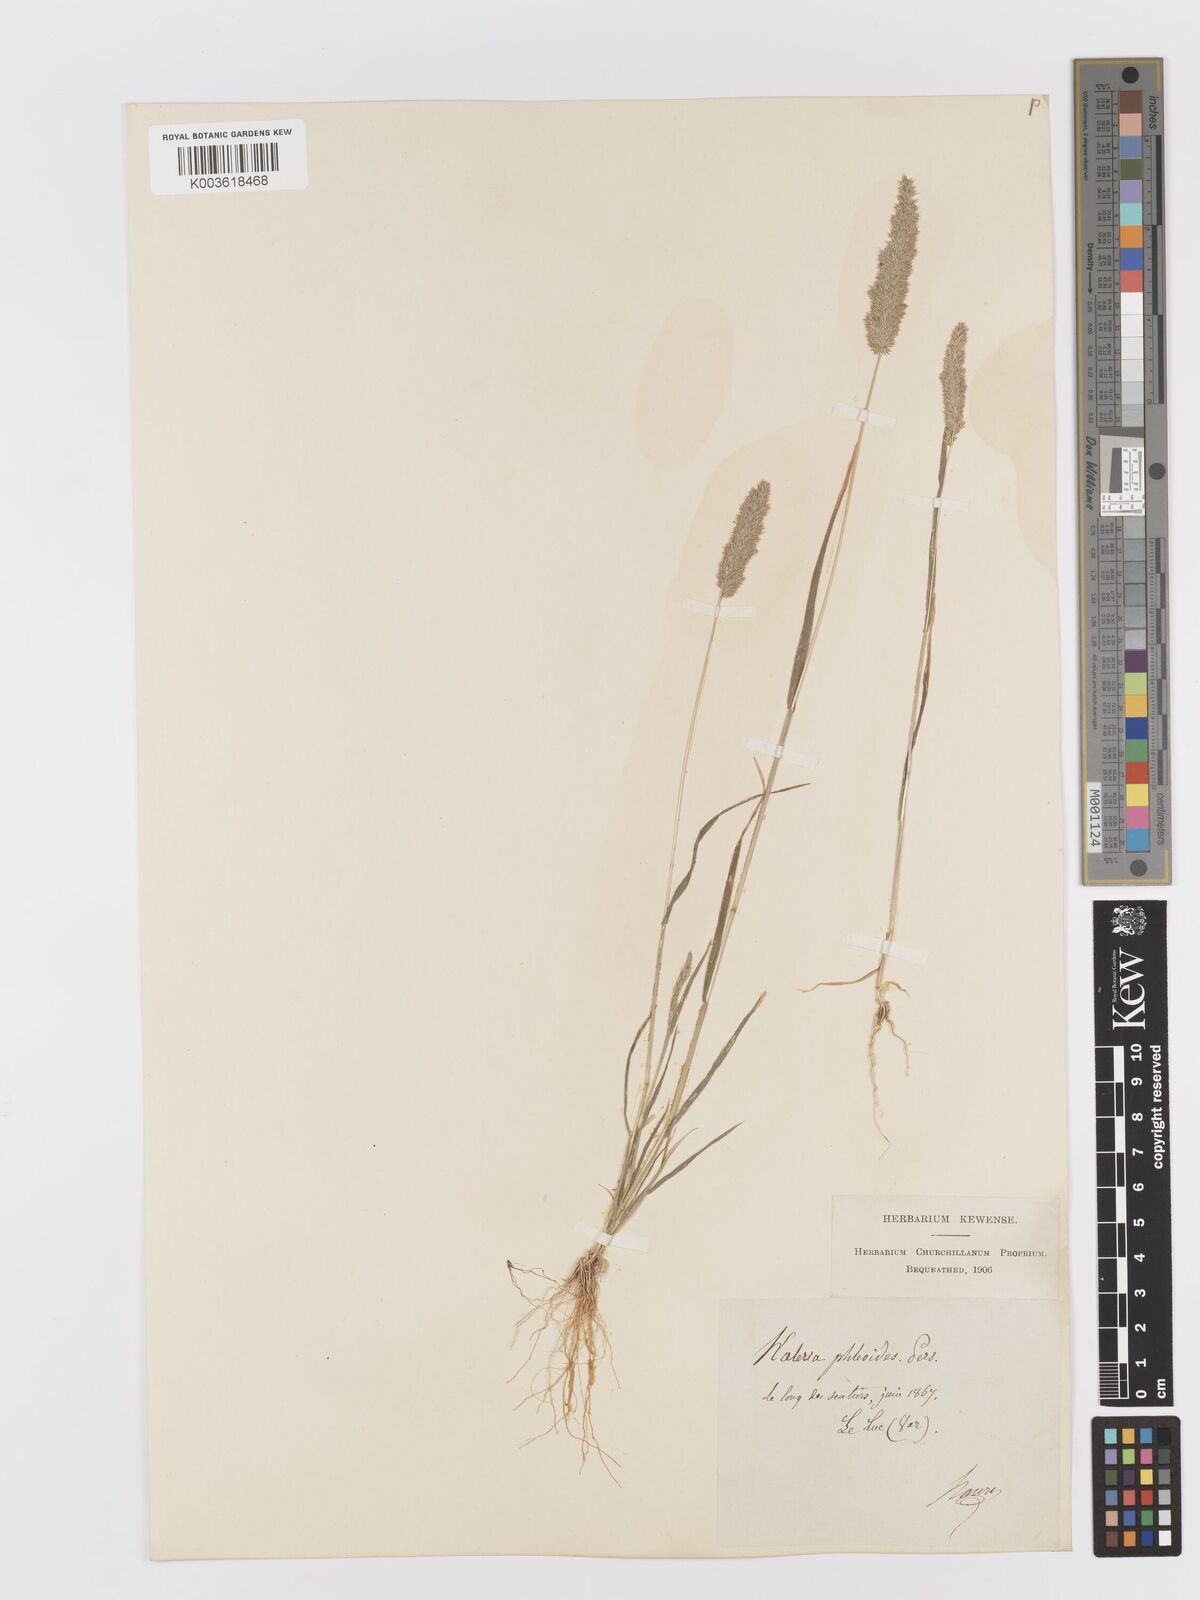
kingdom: Plantae
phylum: Tracheophyta
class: Liliopsida
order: Poales
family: Poaceae
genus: Rostraria
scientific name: Rostraria cristata
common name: Mediterranean hair-grass
